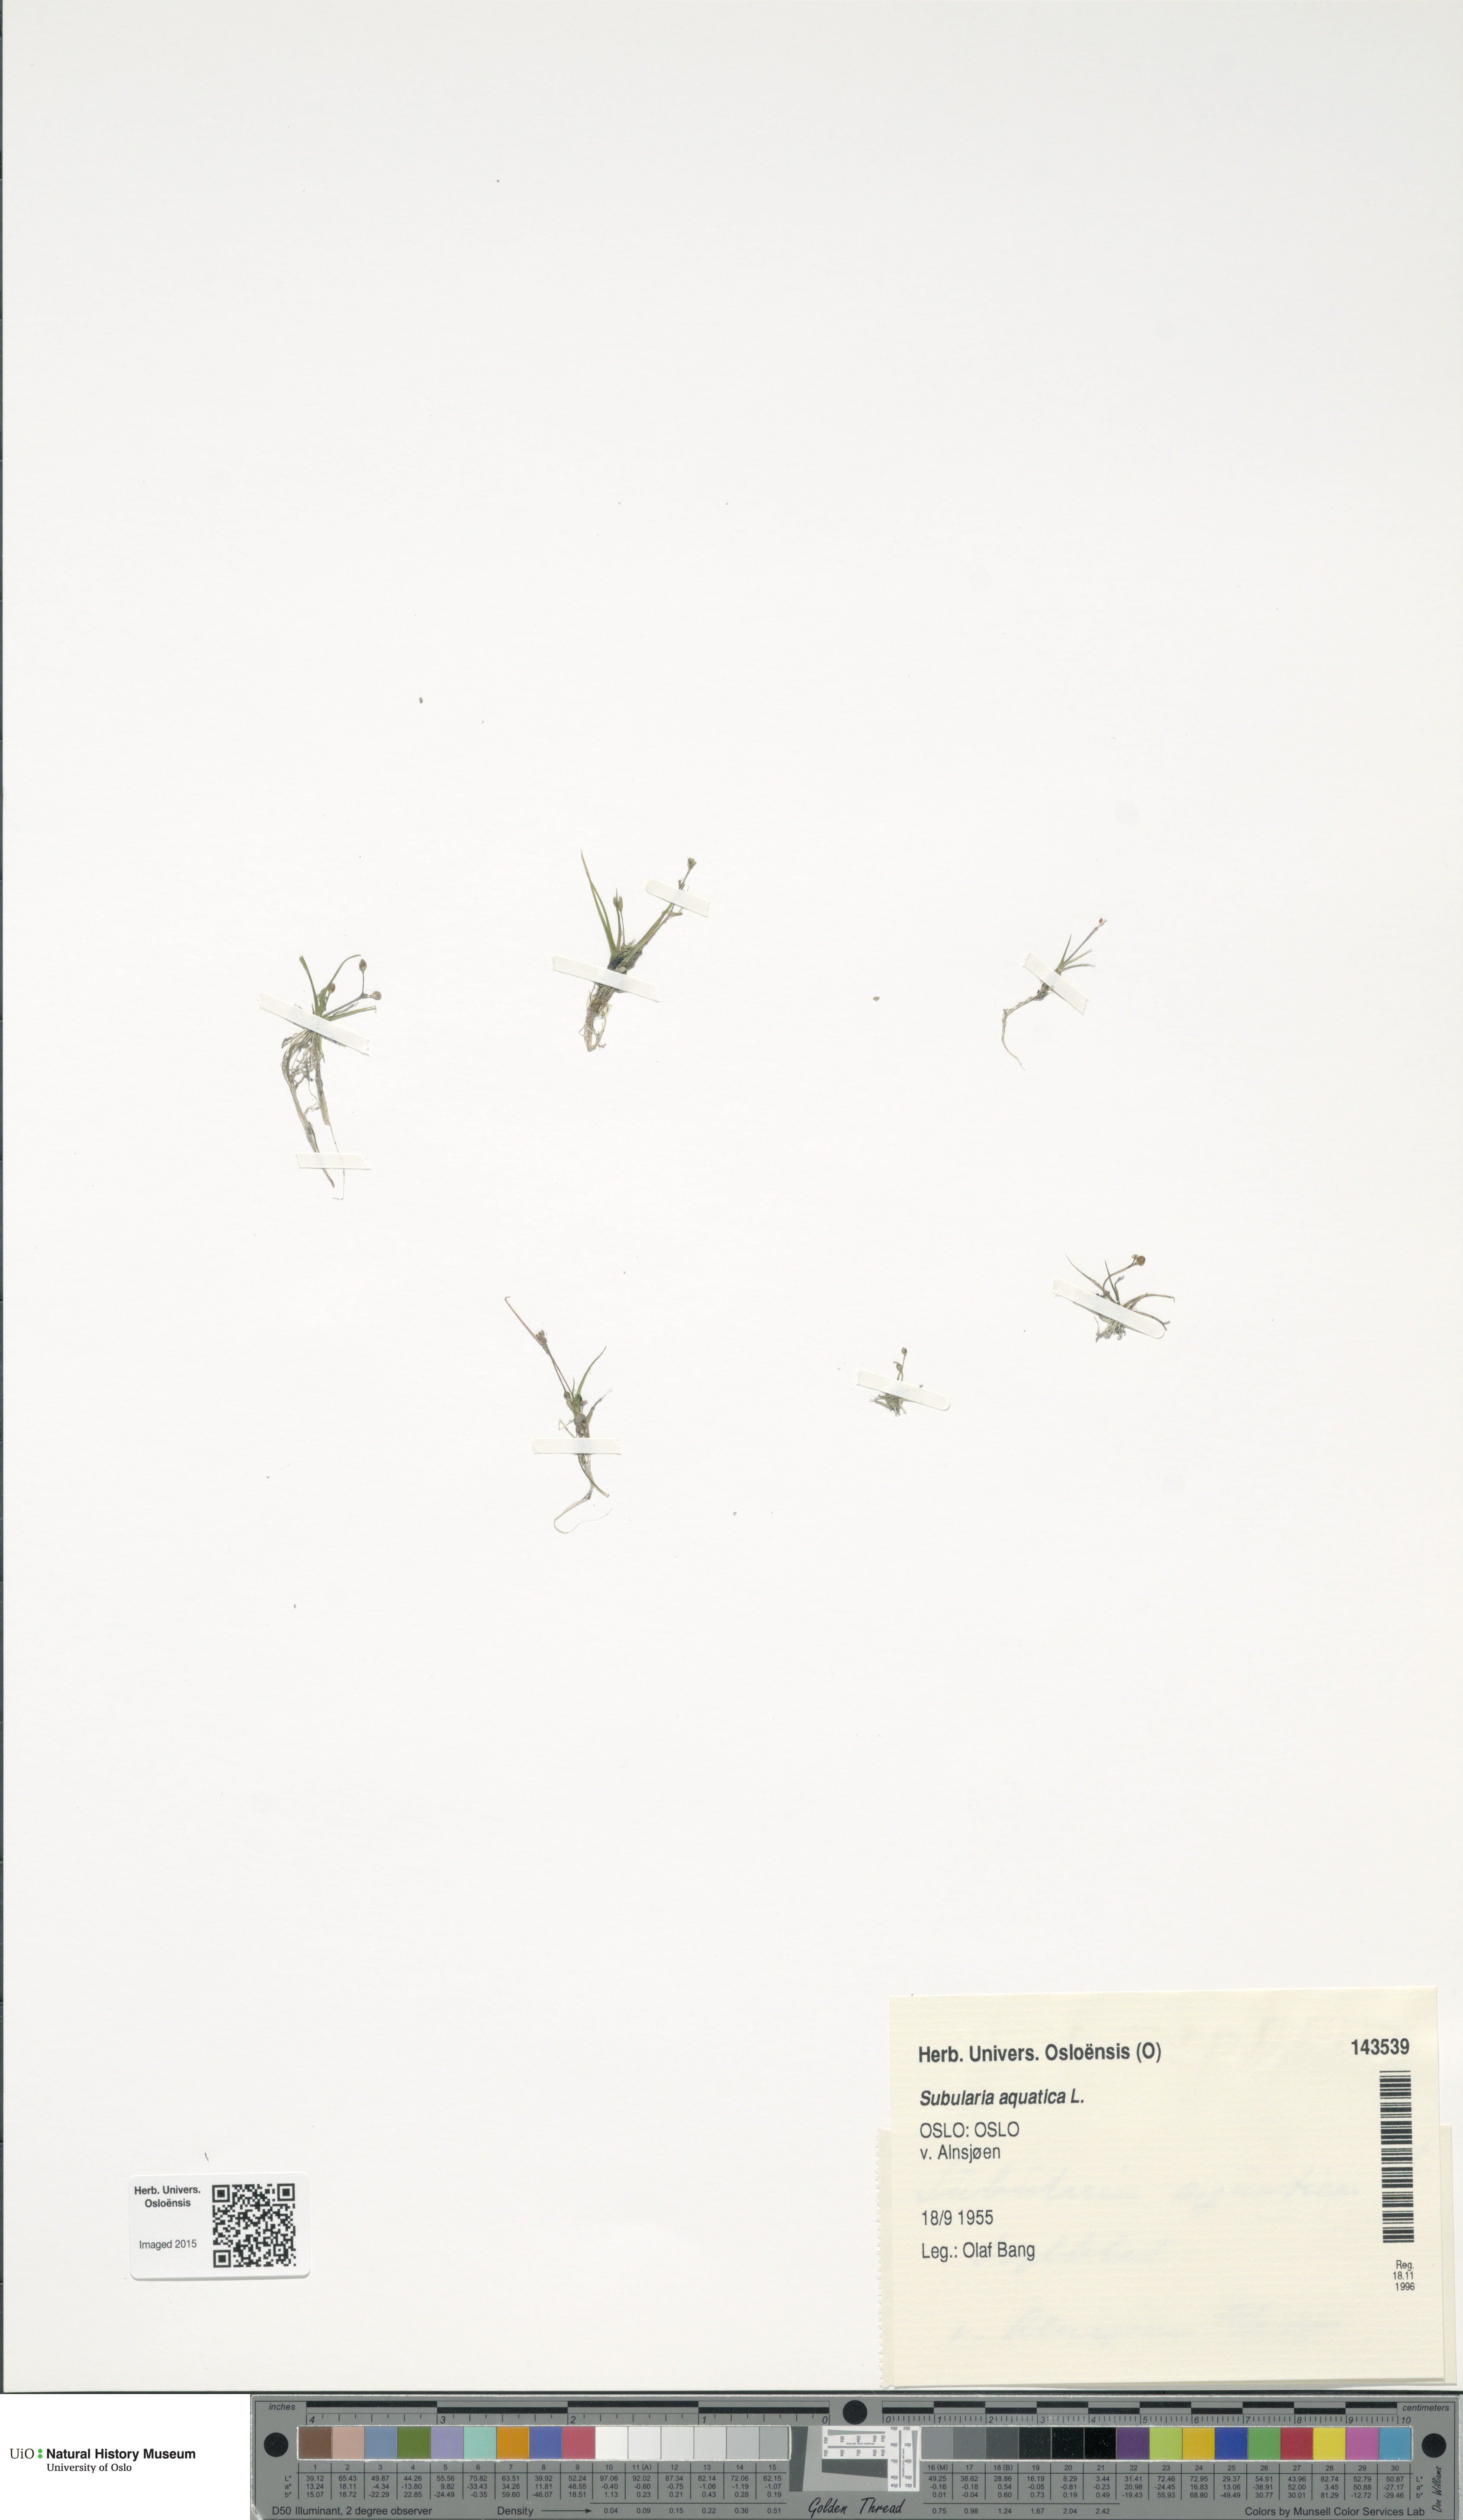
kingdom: Plantae
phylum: Tracheophyta
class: Magnoliopsida
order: Brassicales
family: Brassicaceae
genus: Subularia
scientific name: Subularia aquatica
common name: Awlwort
